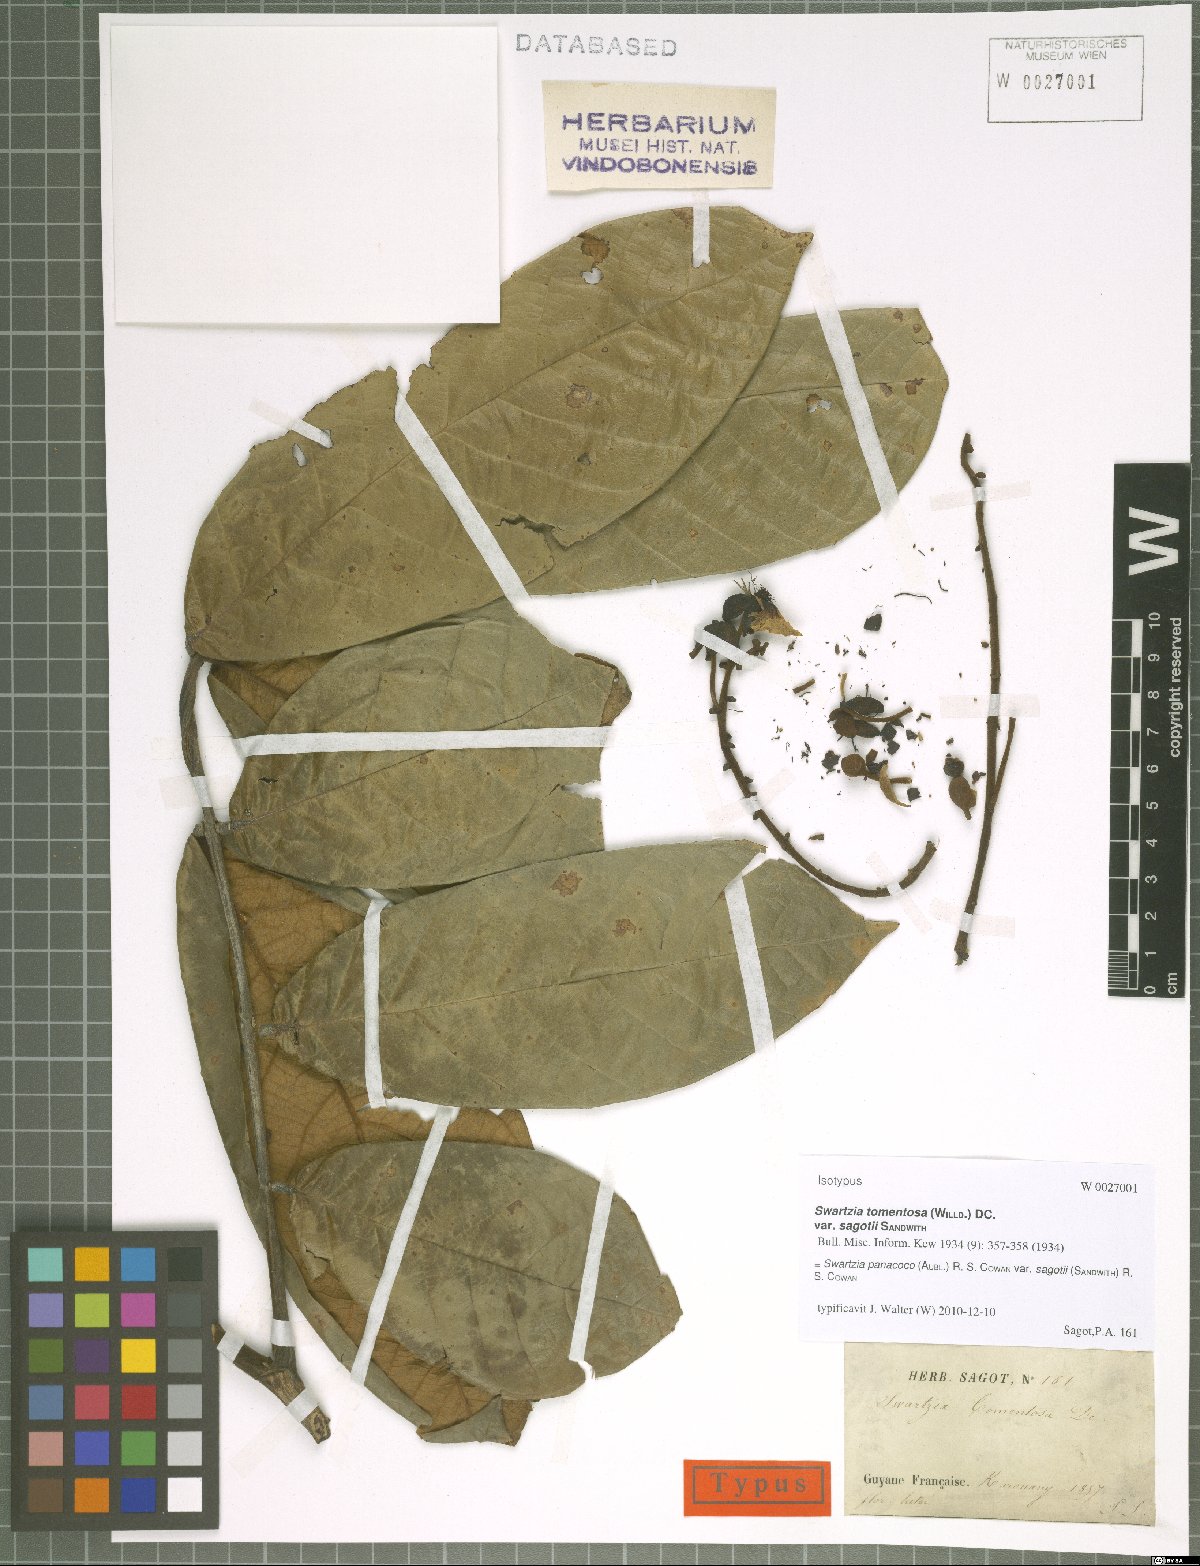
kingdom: Plantae
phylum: Tracheophyta
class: Magnoliopsida
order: Fabales
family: Fabaceae
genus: Swartzia
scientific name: Swartzia panacoco
